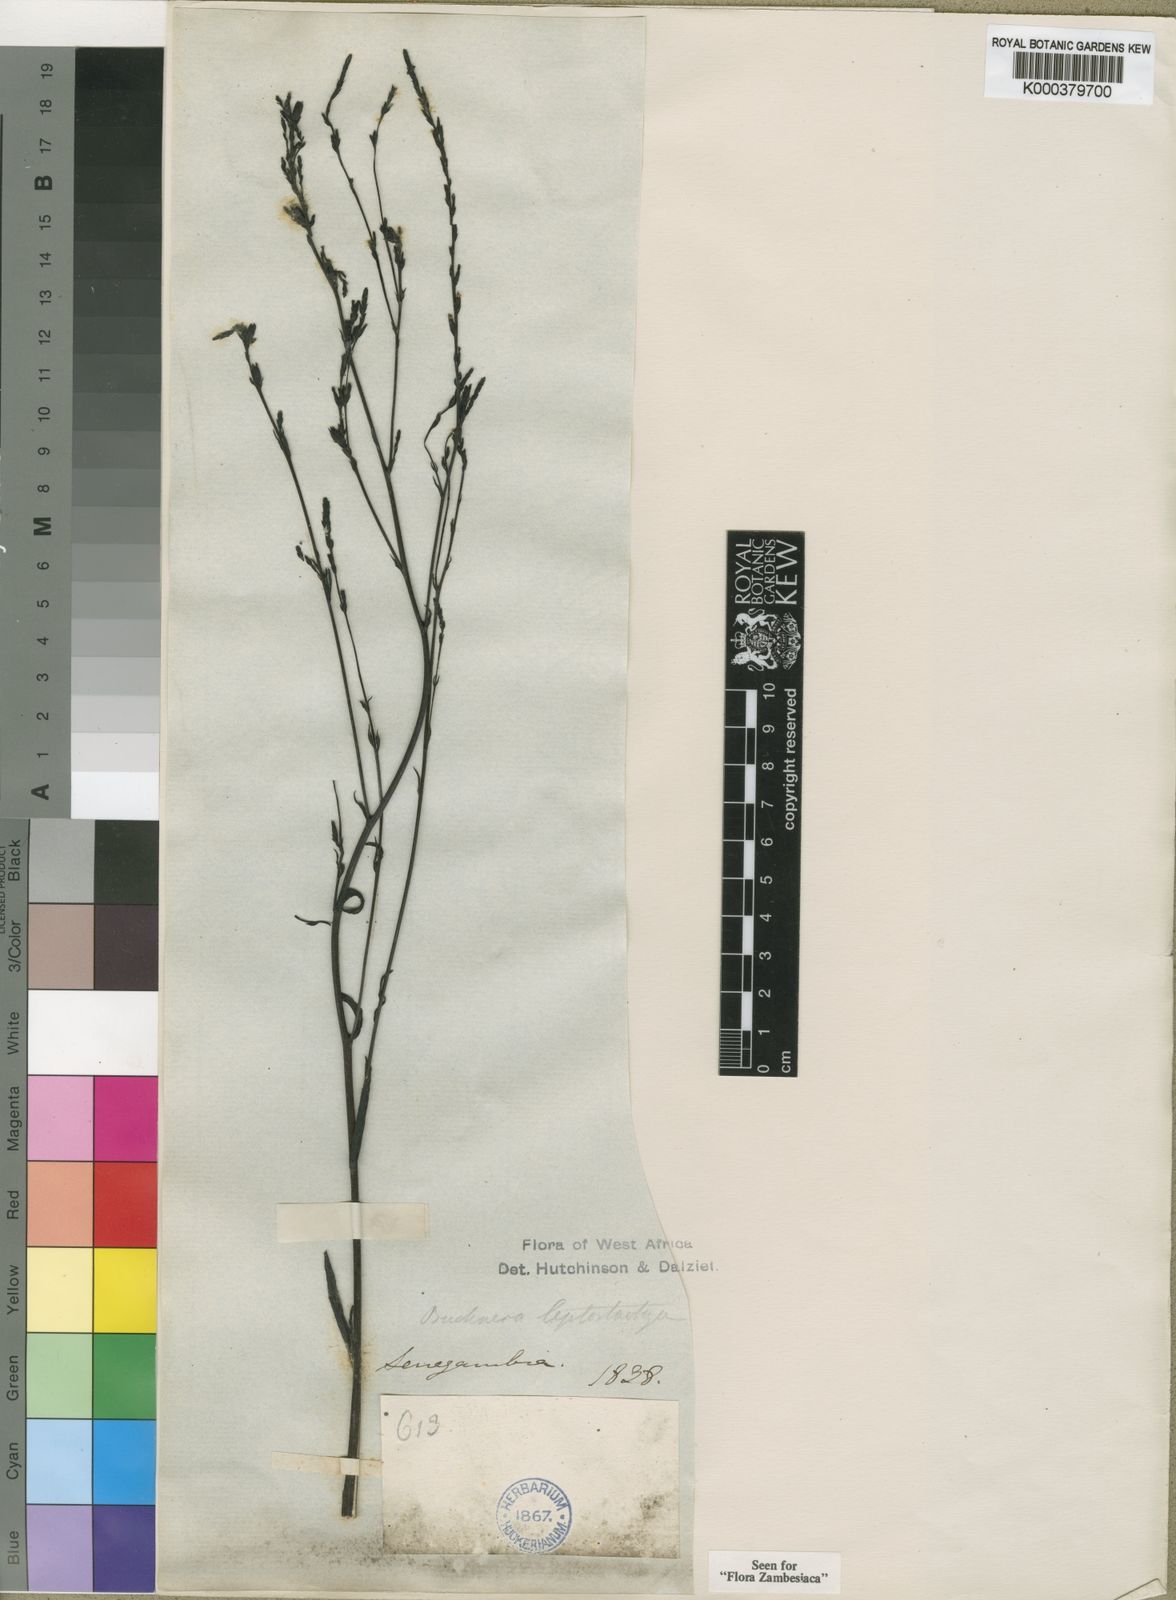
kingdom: Plantae
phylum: Tracheophyta
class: Magnoliopsida
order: Lamiales
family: Orobanchaceae
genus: Buchnera
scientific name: Buchnera leptostachya
